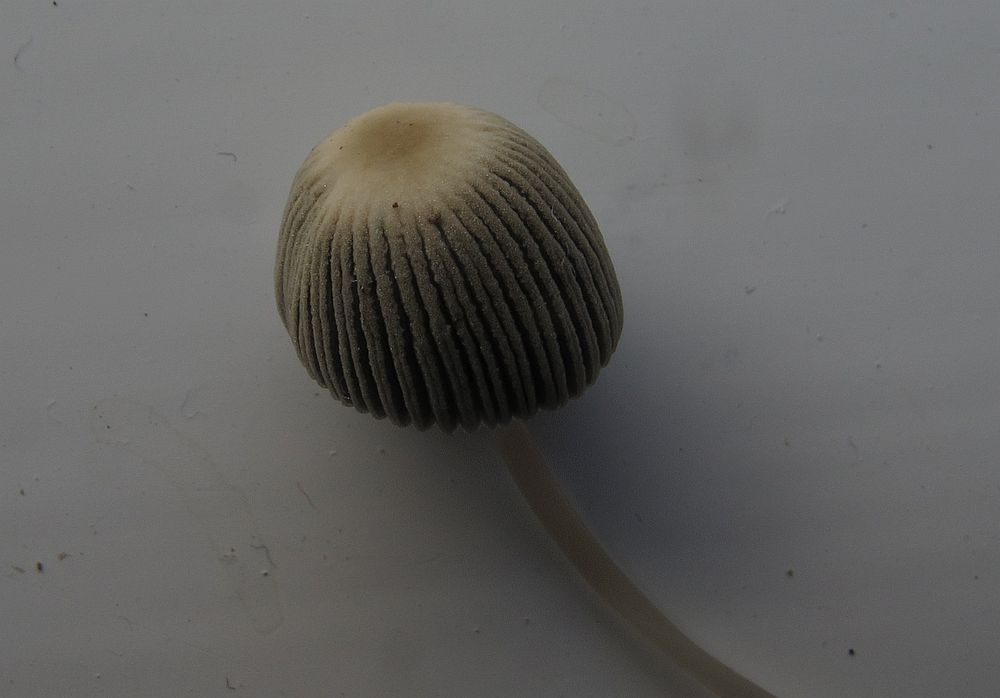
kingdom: Fungi
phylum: Basidiomycota
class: Agaricomycetes
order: Agaricales
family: Psathyrellaceae
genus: Parasola
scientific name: Parasola plicatilis
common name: plæne-hjulhat
